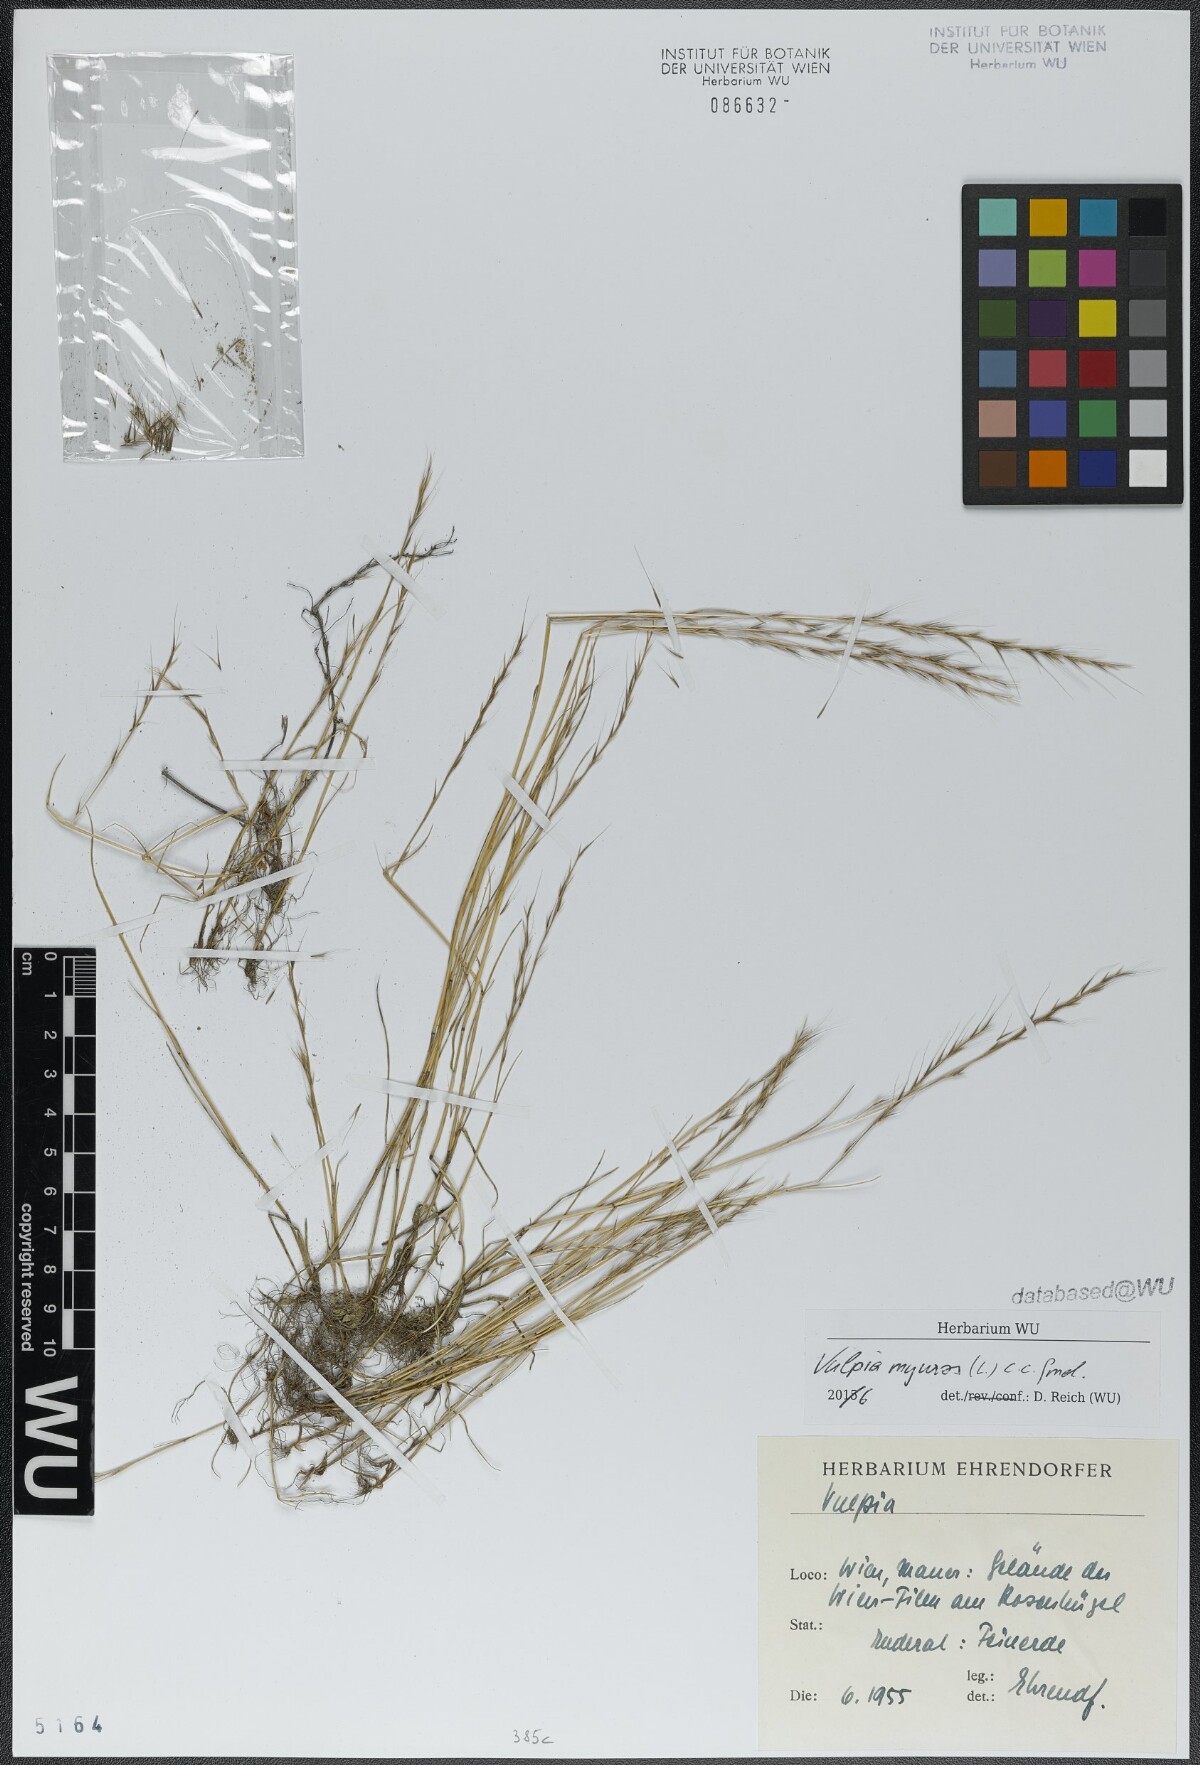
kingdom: Plantae
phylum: Tracheophyta
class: Liliopsida
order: Poales
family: Poaceae
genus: Festuca
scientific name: Festuca myuros
